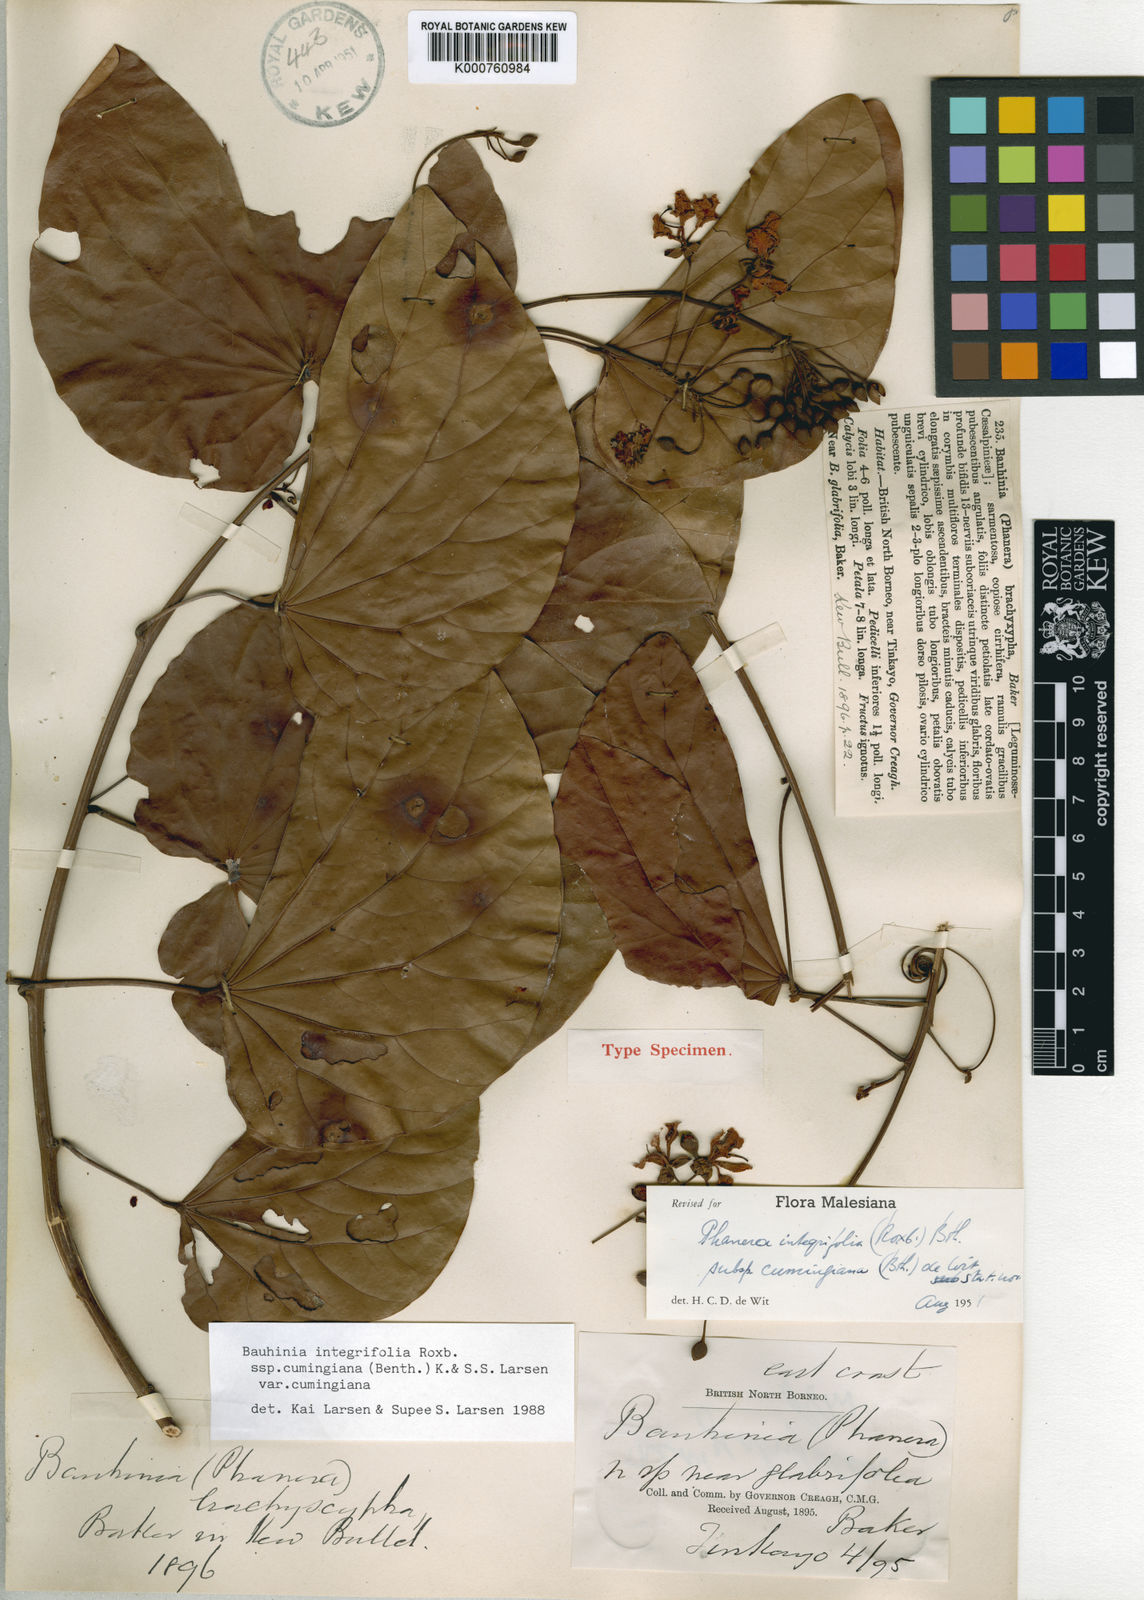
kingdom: Plantae
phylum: Tracheophyta
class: Magnoliopsida
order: Fabales
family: Fabaceae
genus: Phanera
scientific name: Phanera integrifolia
